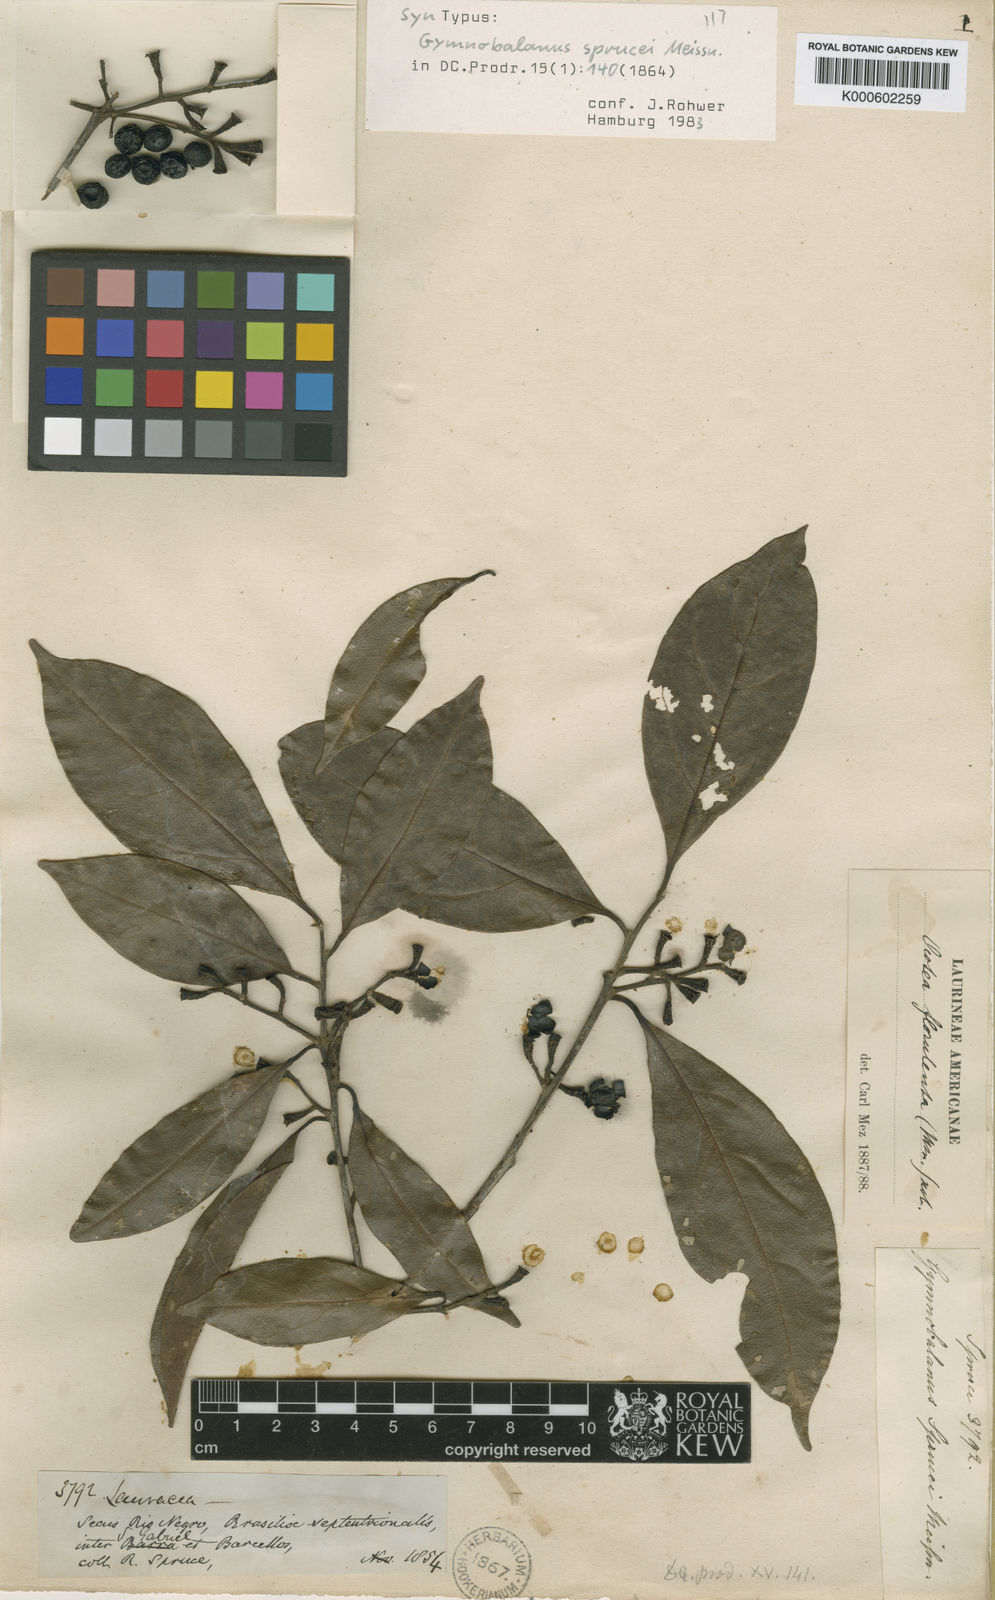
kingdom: Plantae
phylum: Tracheophyta
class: Magnoliopsida
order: Laurales
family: Lauraceae
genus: Ocotea
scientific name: Ocotea neesiana
